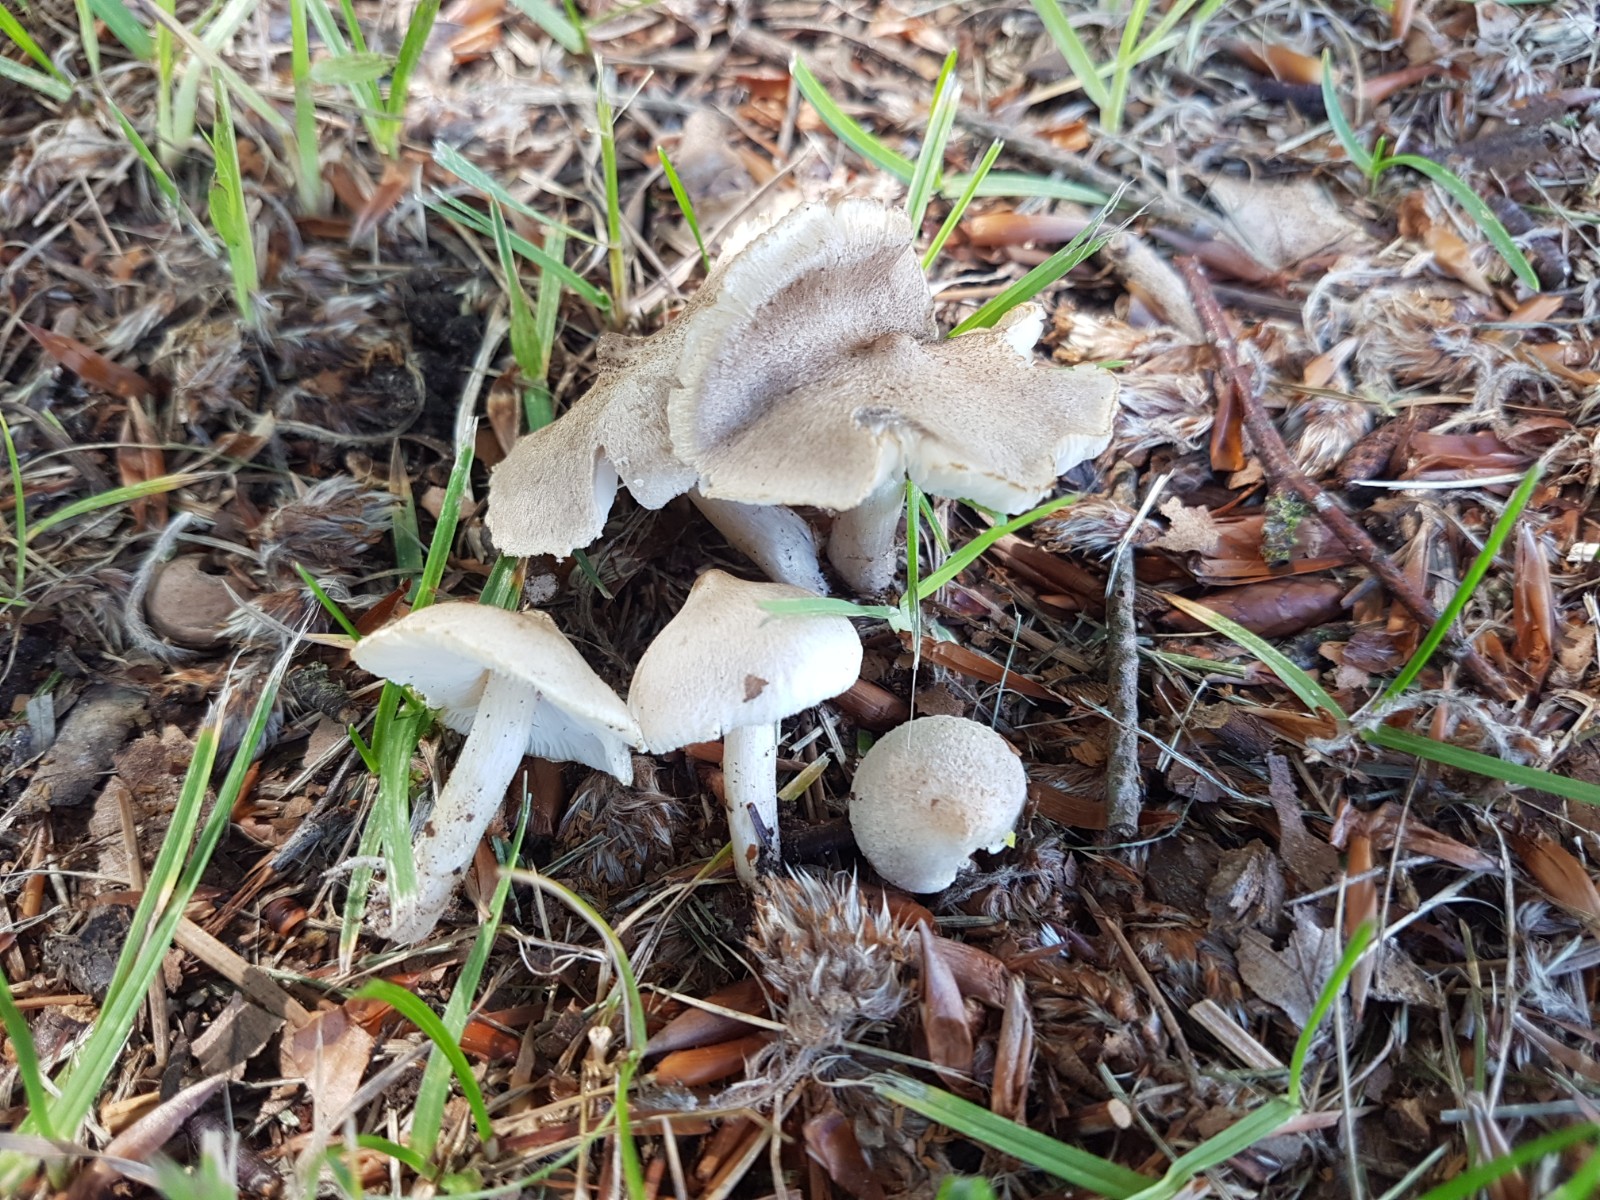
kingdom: Fungi
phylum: Basidiomycota
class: Agaricomycetes
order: Agaricales
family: Tricholomataceae
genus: Tricholoma
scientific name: Tricholoma argyraceum
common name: spids ridderhat
